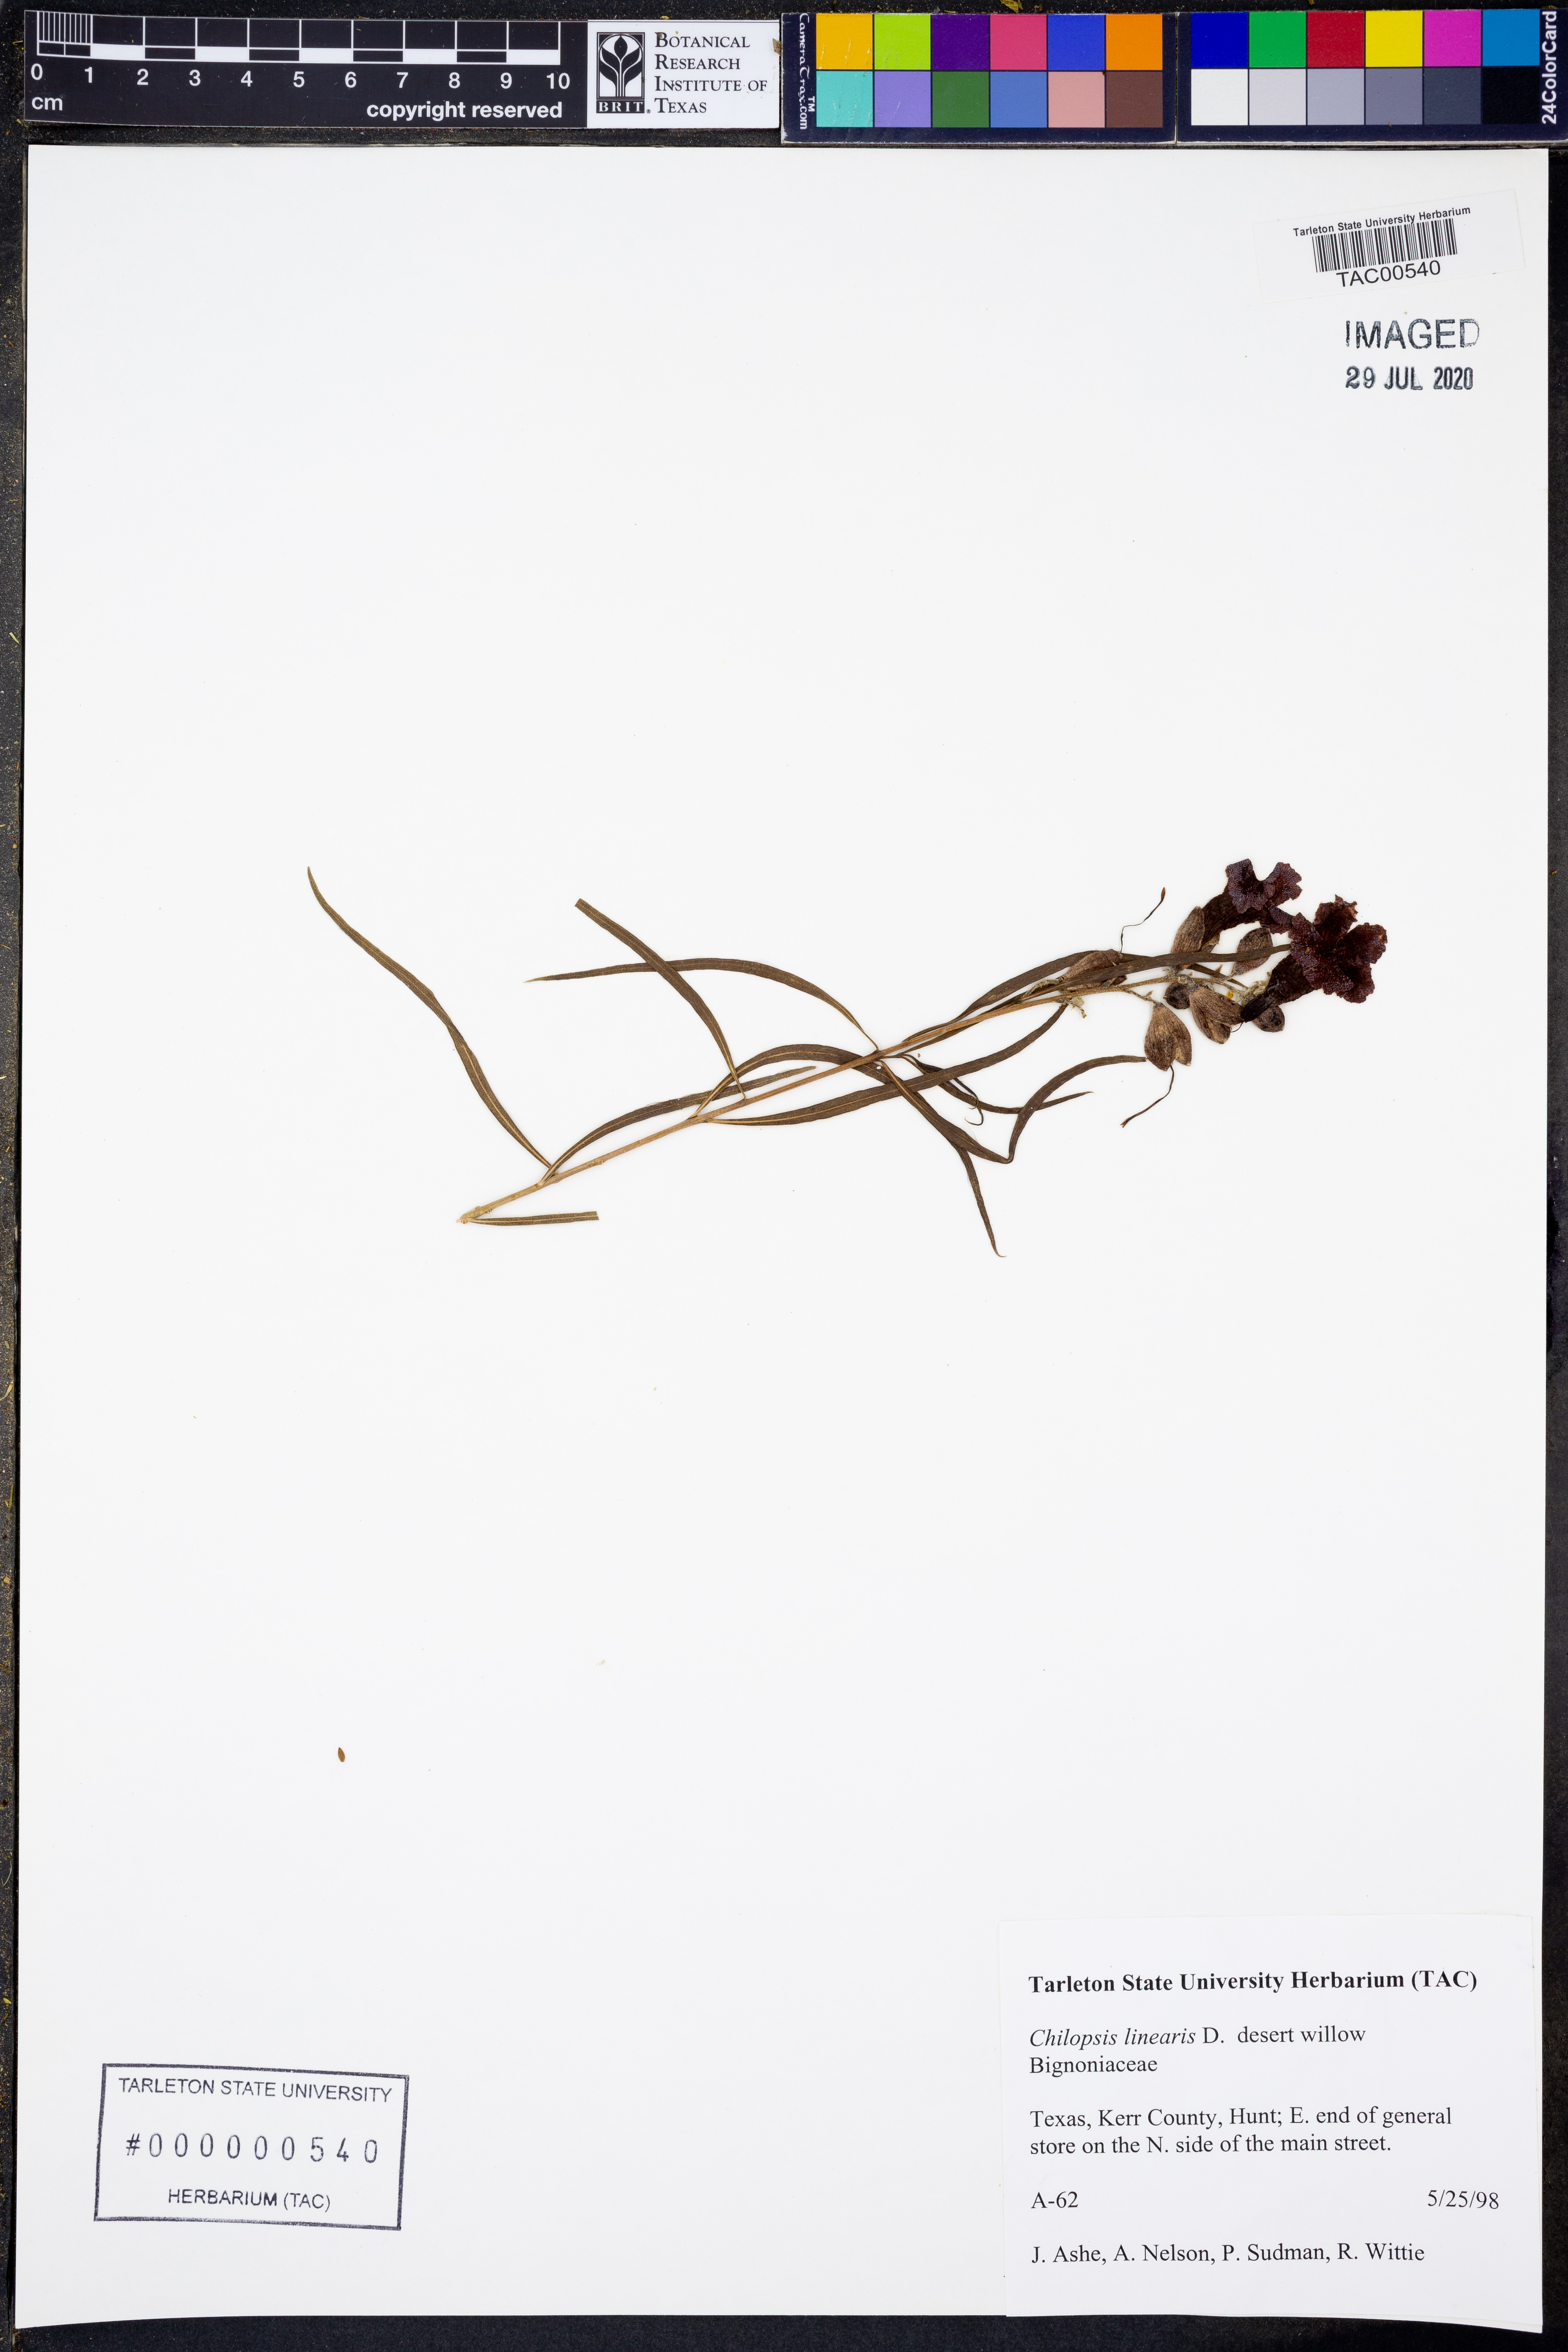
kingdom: Plantae
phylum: Tracheophyta
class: Magnoliopsida
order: Lamiales
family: Bignoniaceae
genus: Chilopsis
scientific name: Chilopsis linearis
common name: Desert-willow
